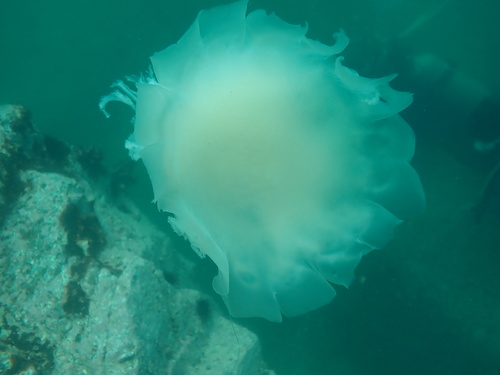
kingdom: Animalia
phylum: Cnidaria
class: Scyphozoa
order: Semaeostomeae
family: Cyaneidae
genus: Cyanea
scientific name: Cyanea
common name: Lion's Mane Jellyfish
